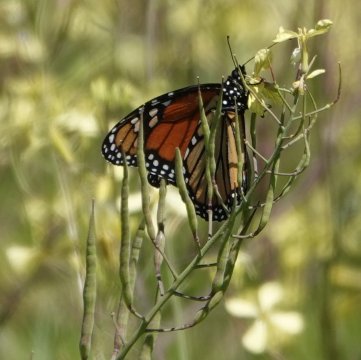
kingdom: Animalia
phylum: Arthropoda
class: Insecta
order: Lepidoptera
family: Nymphalidae
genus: Danaus
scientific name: Danaus plexippus
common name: Monarch
